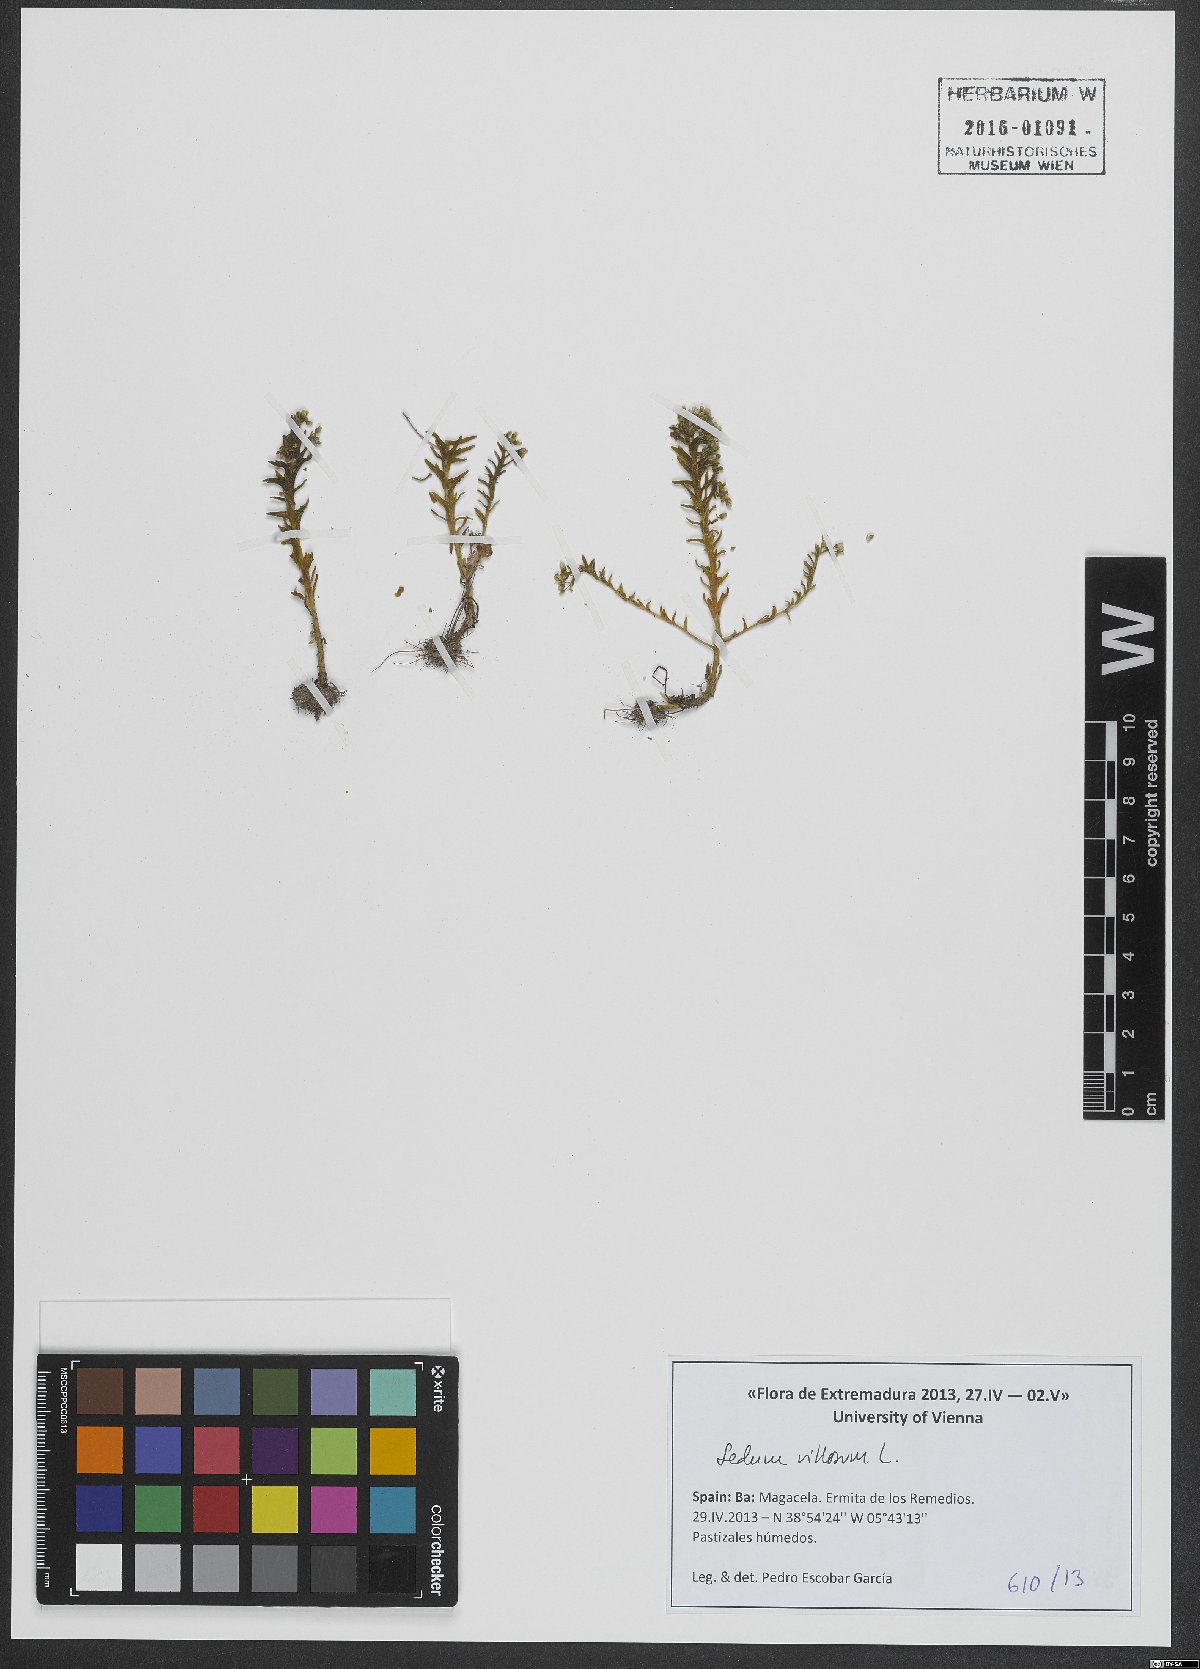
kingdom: Plantae
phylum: Tracheophyta
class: Magnoliopsida
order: Saxifragales
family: Crassulaceae
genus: Sedum
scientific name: Sedum villosum
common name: Hairy stonecrop
